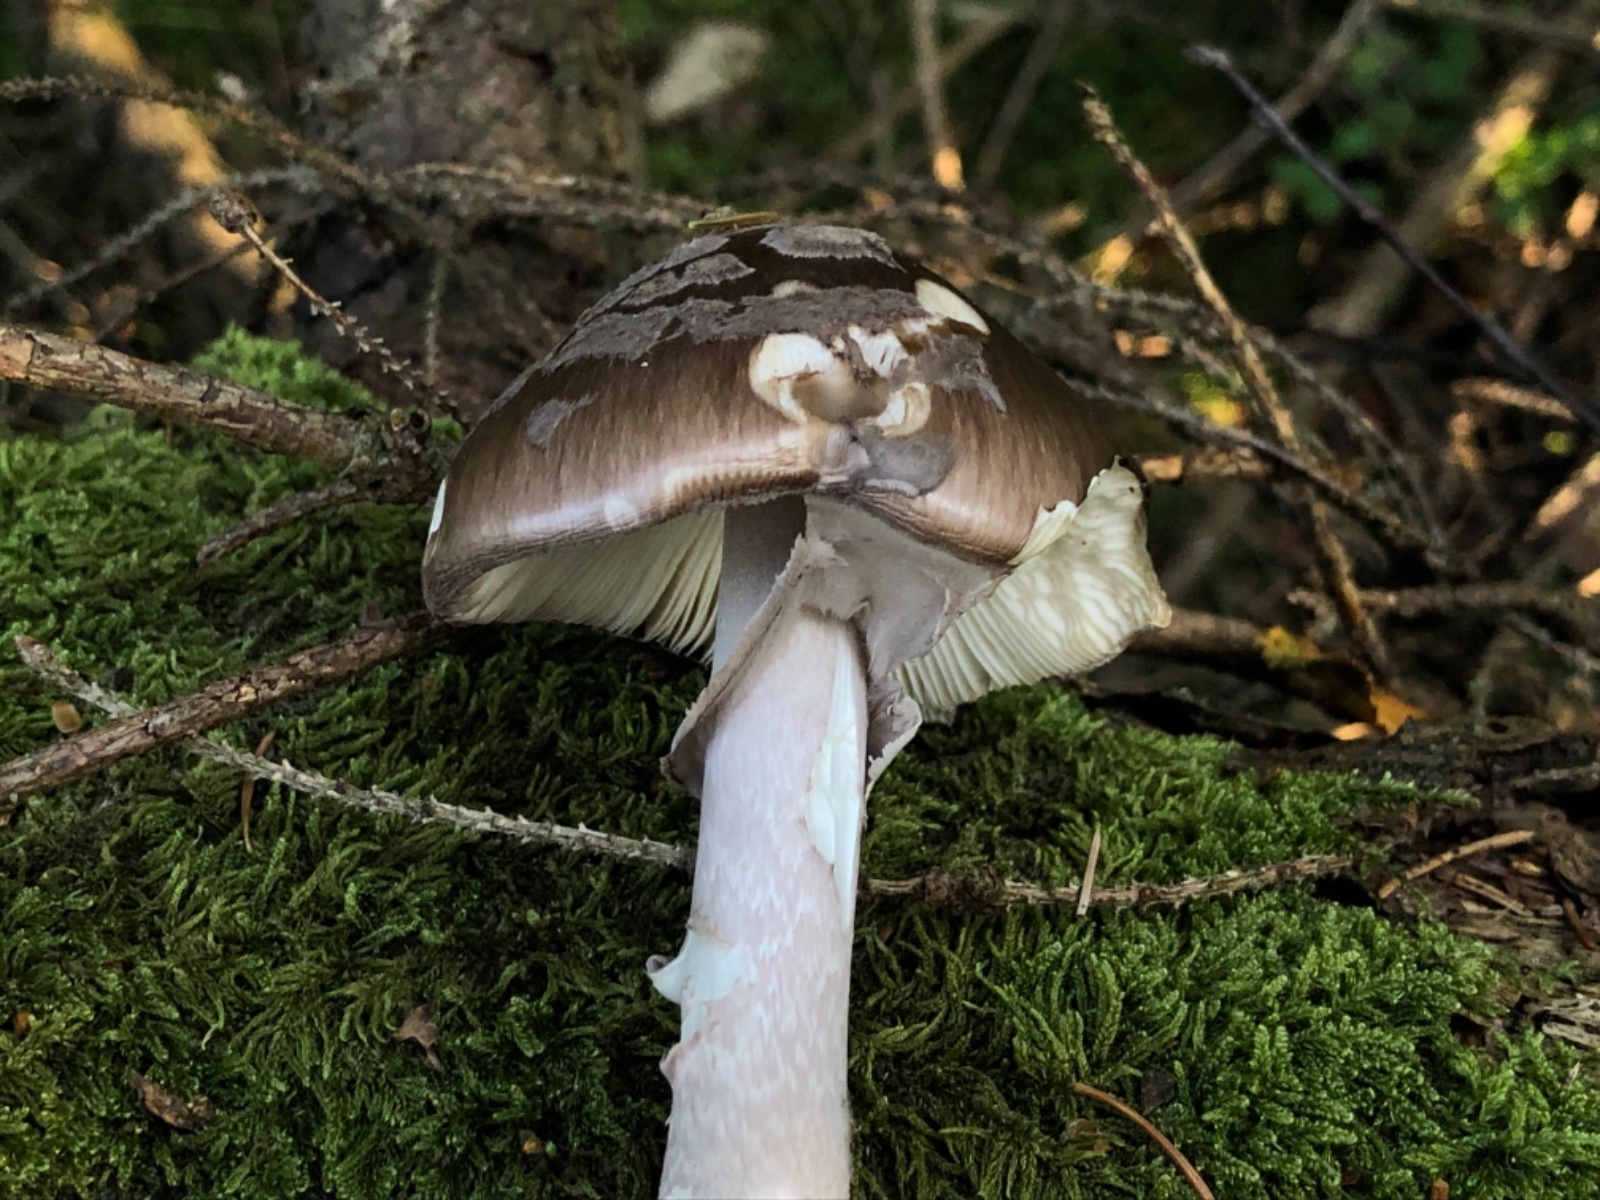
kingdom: Fungi
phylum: Basidiomycota
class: Agaricomycetes
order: Agaricales
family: Amanitaceae
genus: Amanita
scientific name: Amanita porphyria
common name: porfyr-fluesvamp
